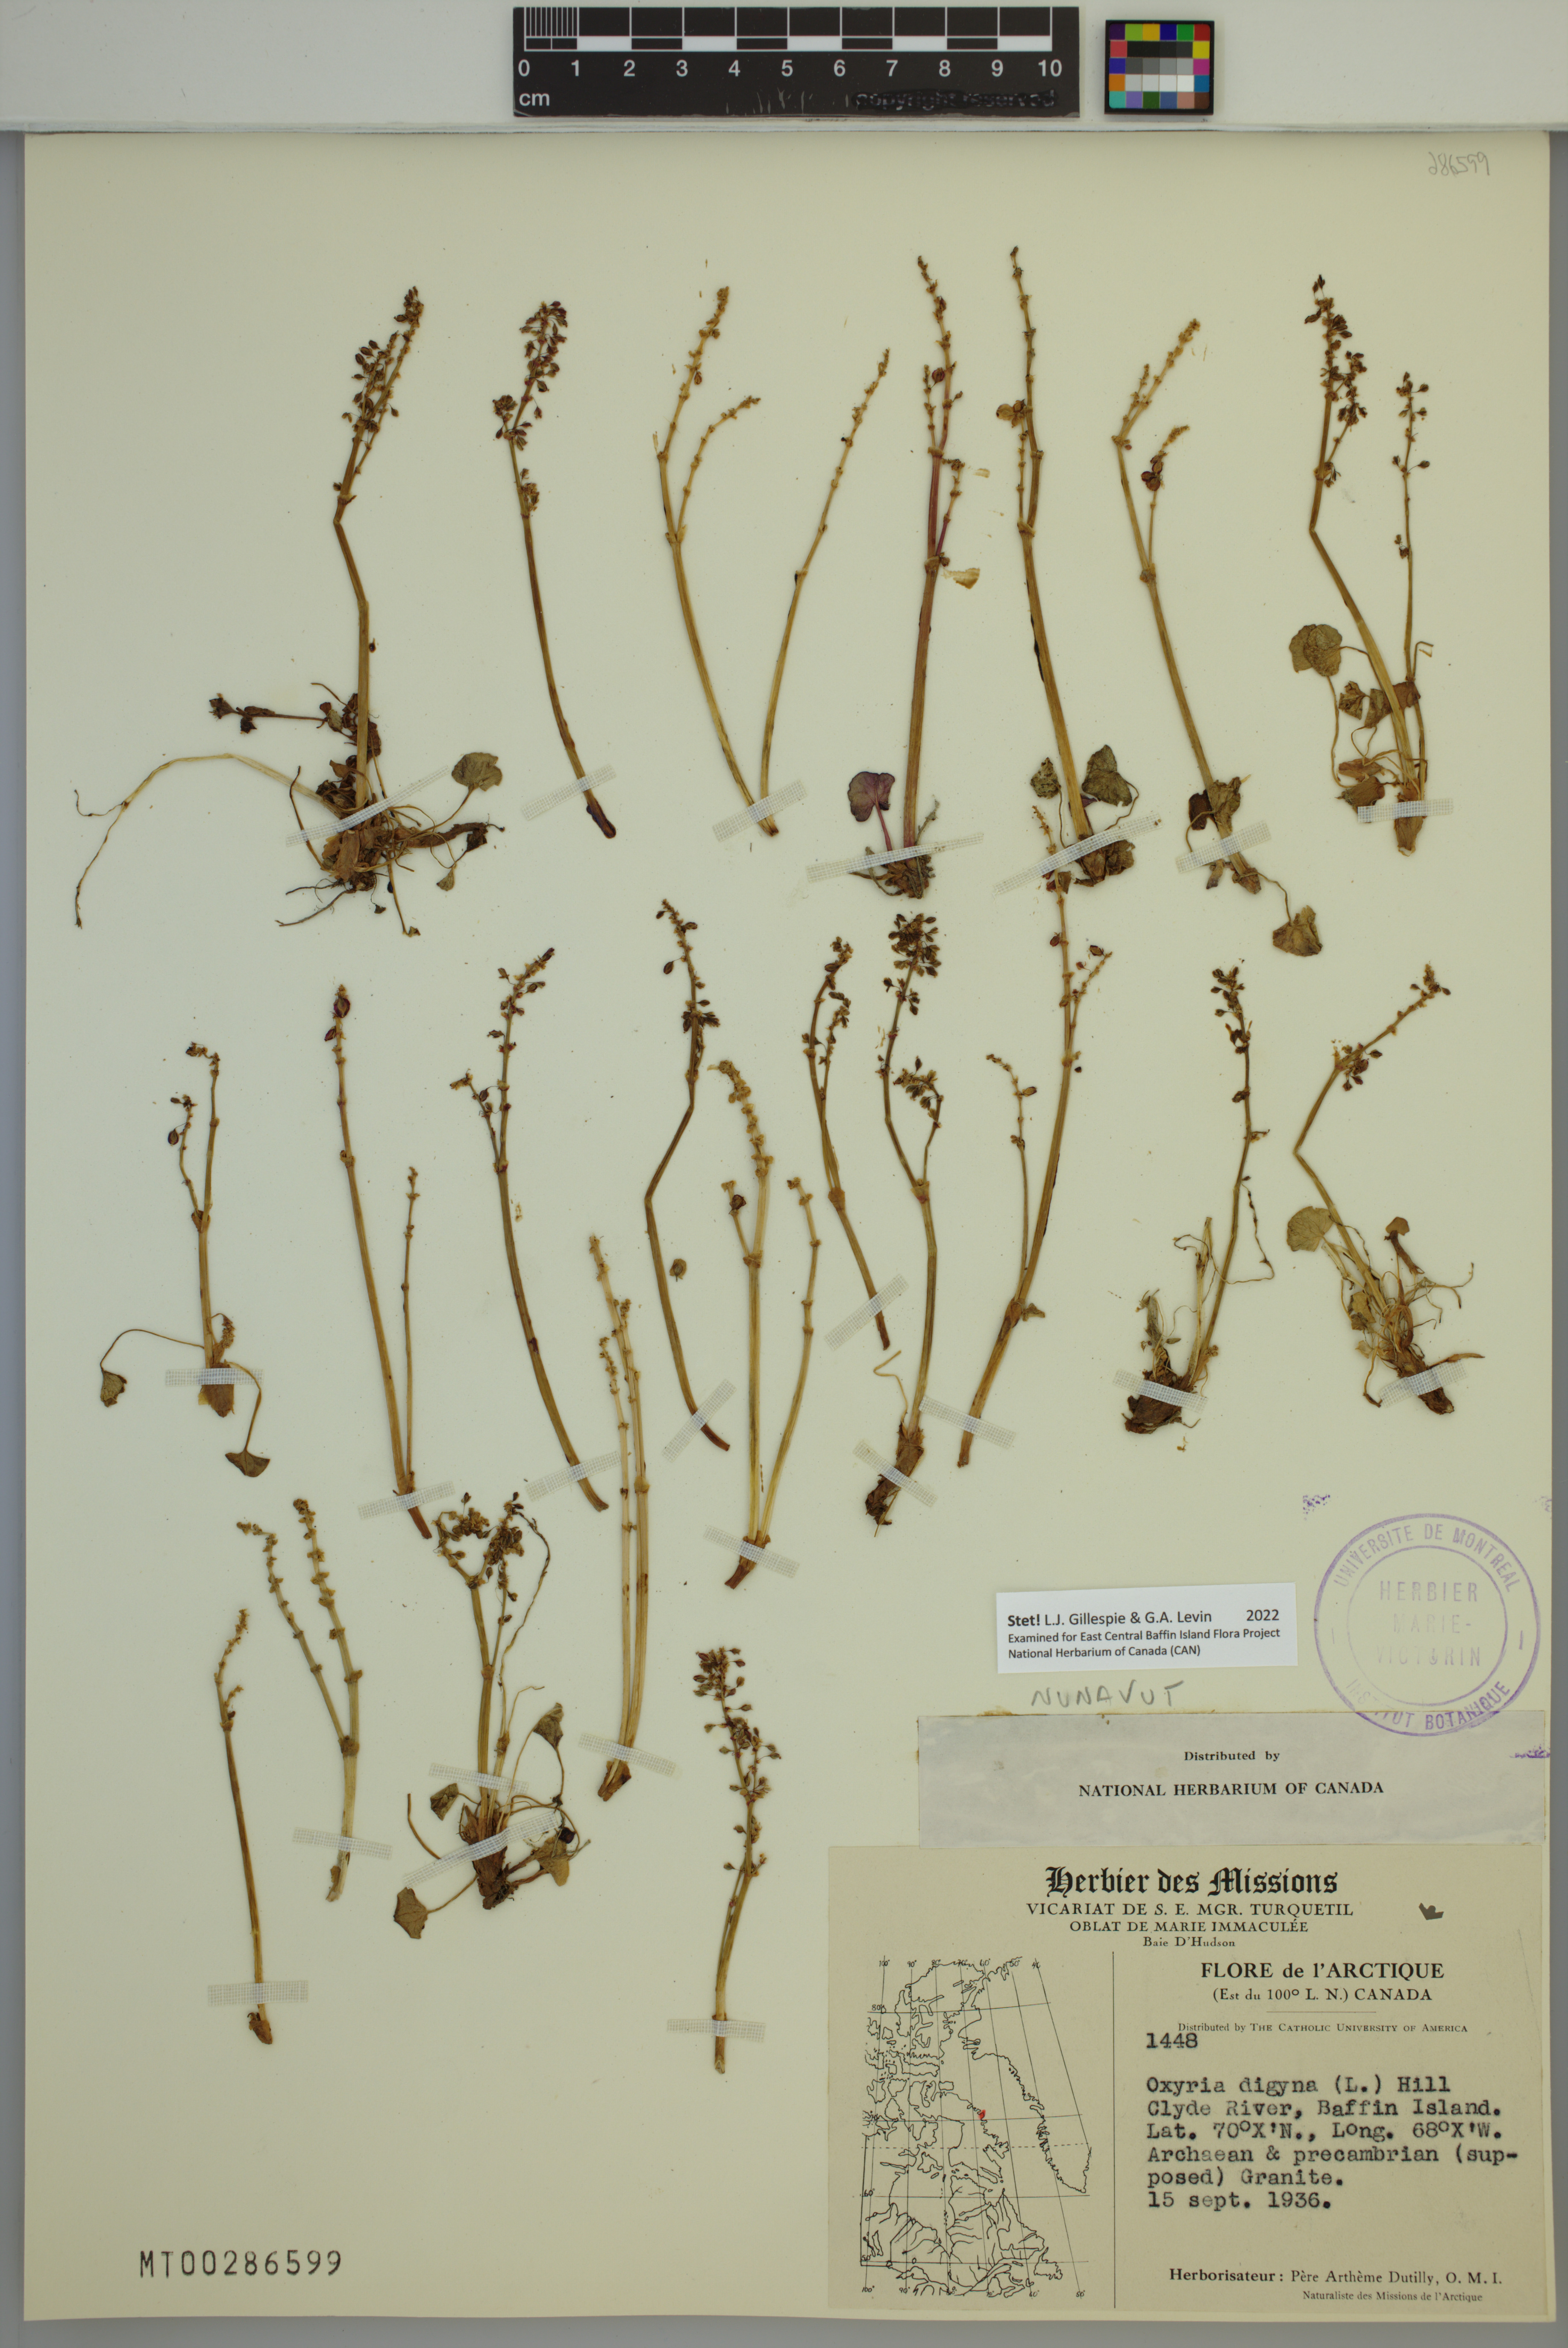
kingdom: Plantae
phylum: Tracheophyta
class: Magnoliopsida
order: Caryophyllales
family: Polygonaceae
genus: Oxyria
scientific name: Oxyria digyna
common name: Alpine mountain-sorrel
